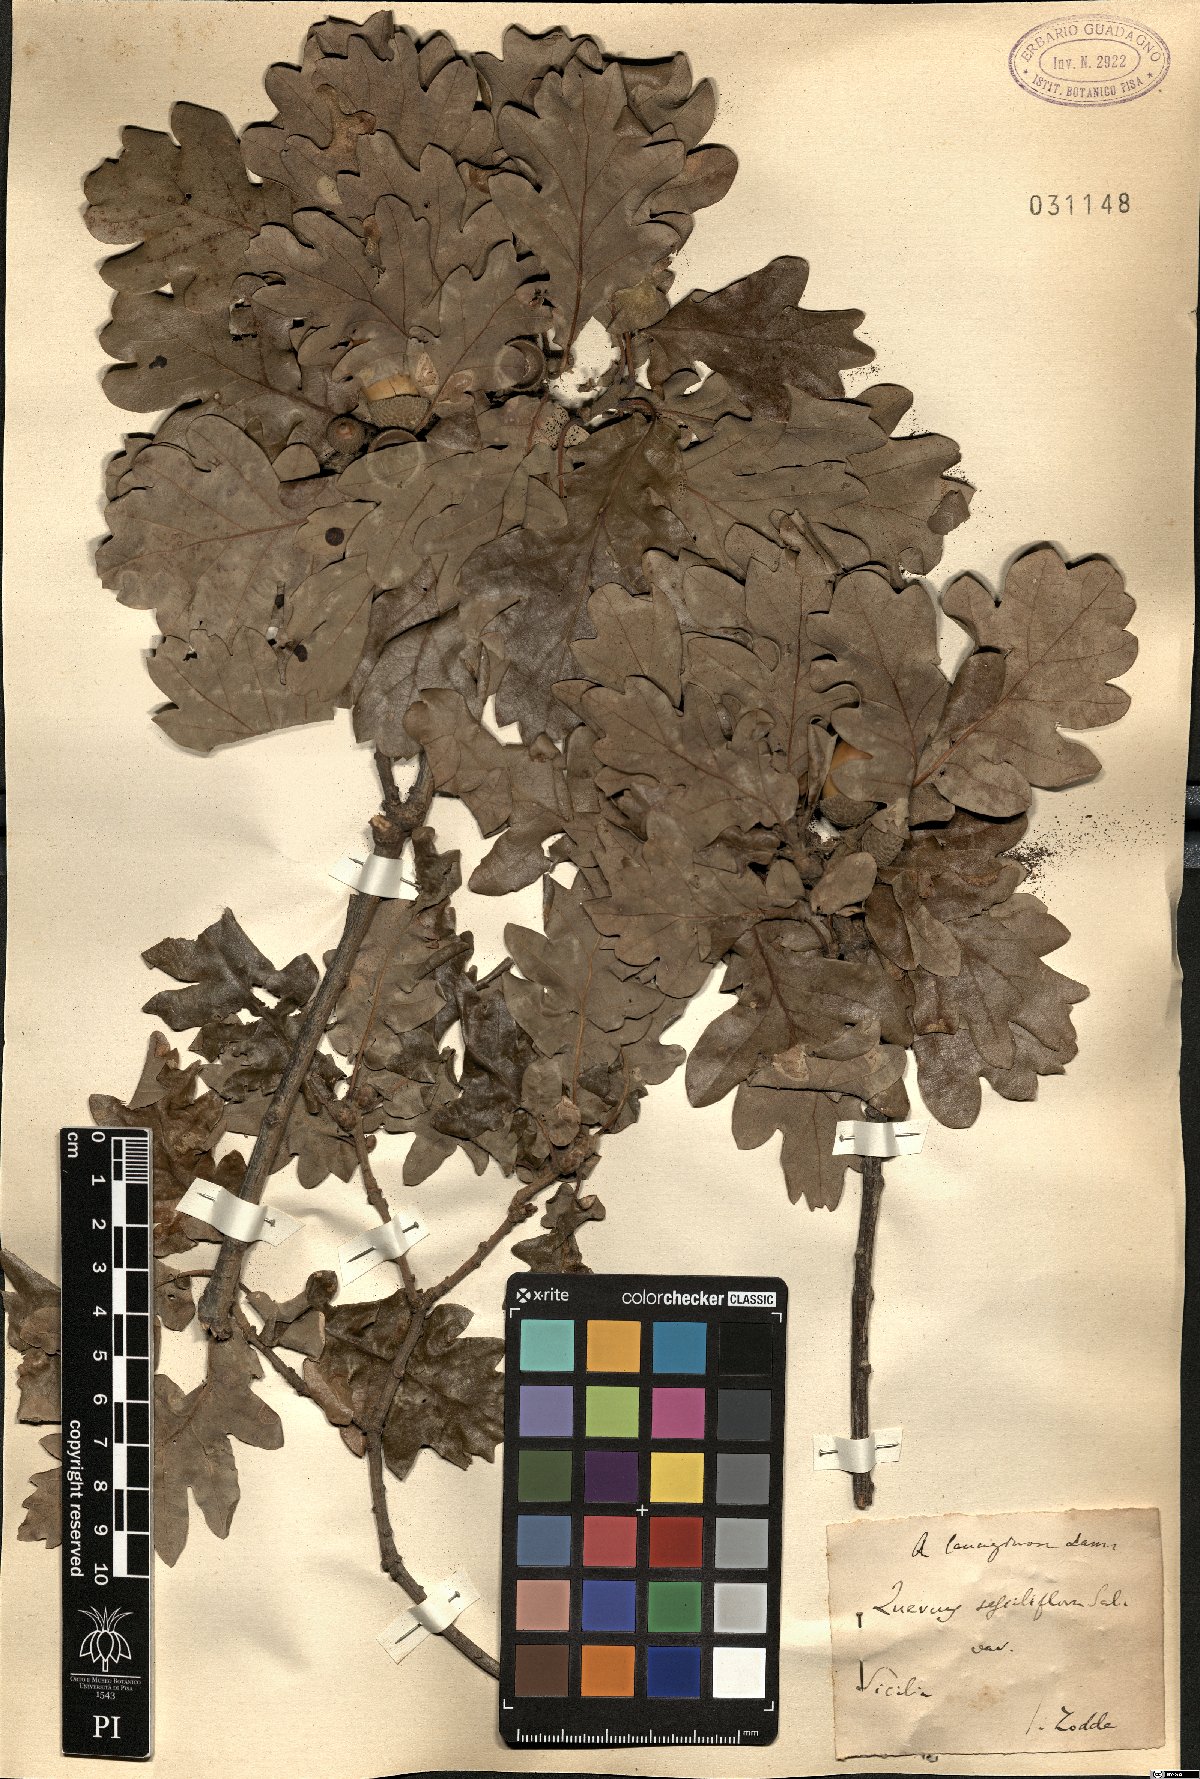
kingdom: Plantae
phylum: Tracheophyta
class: Magnoliopsida
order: Fagales
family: Fagaceae
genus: Quercus
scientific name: Quercus pubescens
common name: Downy oak
